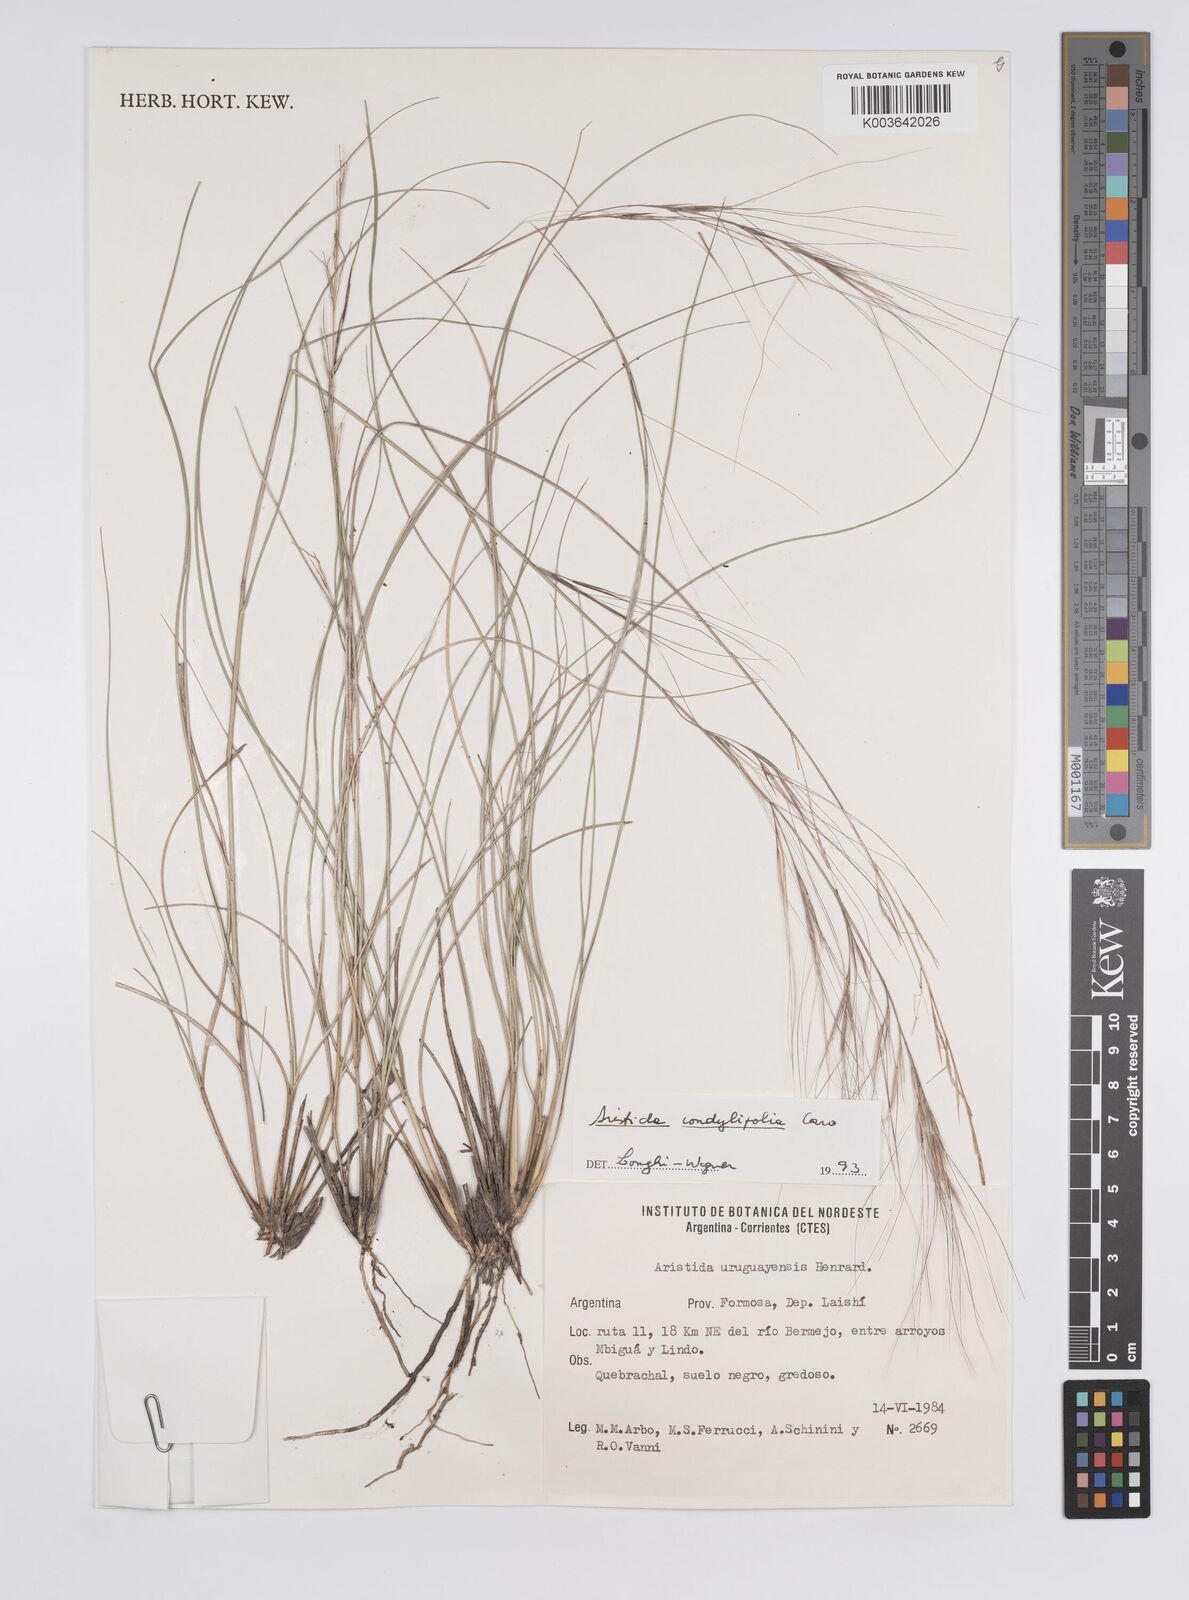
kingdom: Plantae
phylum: Tracheophyta
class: Liliopsida
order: Poales
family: Poaceae
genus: Aristida
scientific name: Aristida uruguayensis
